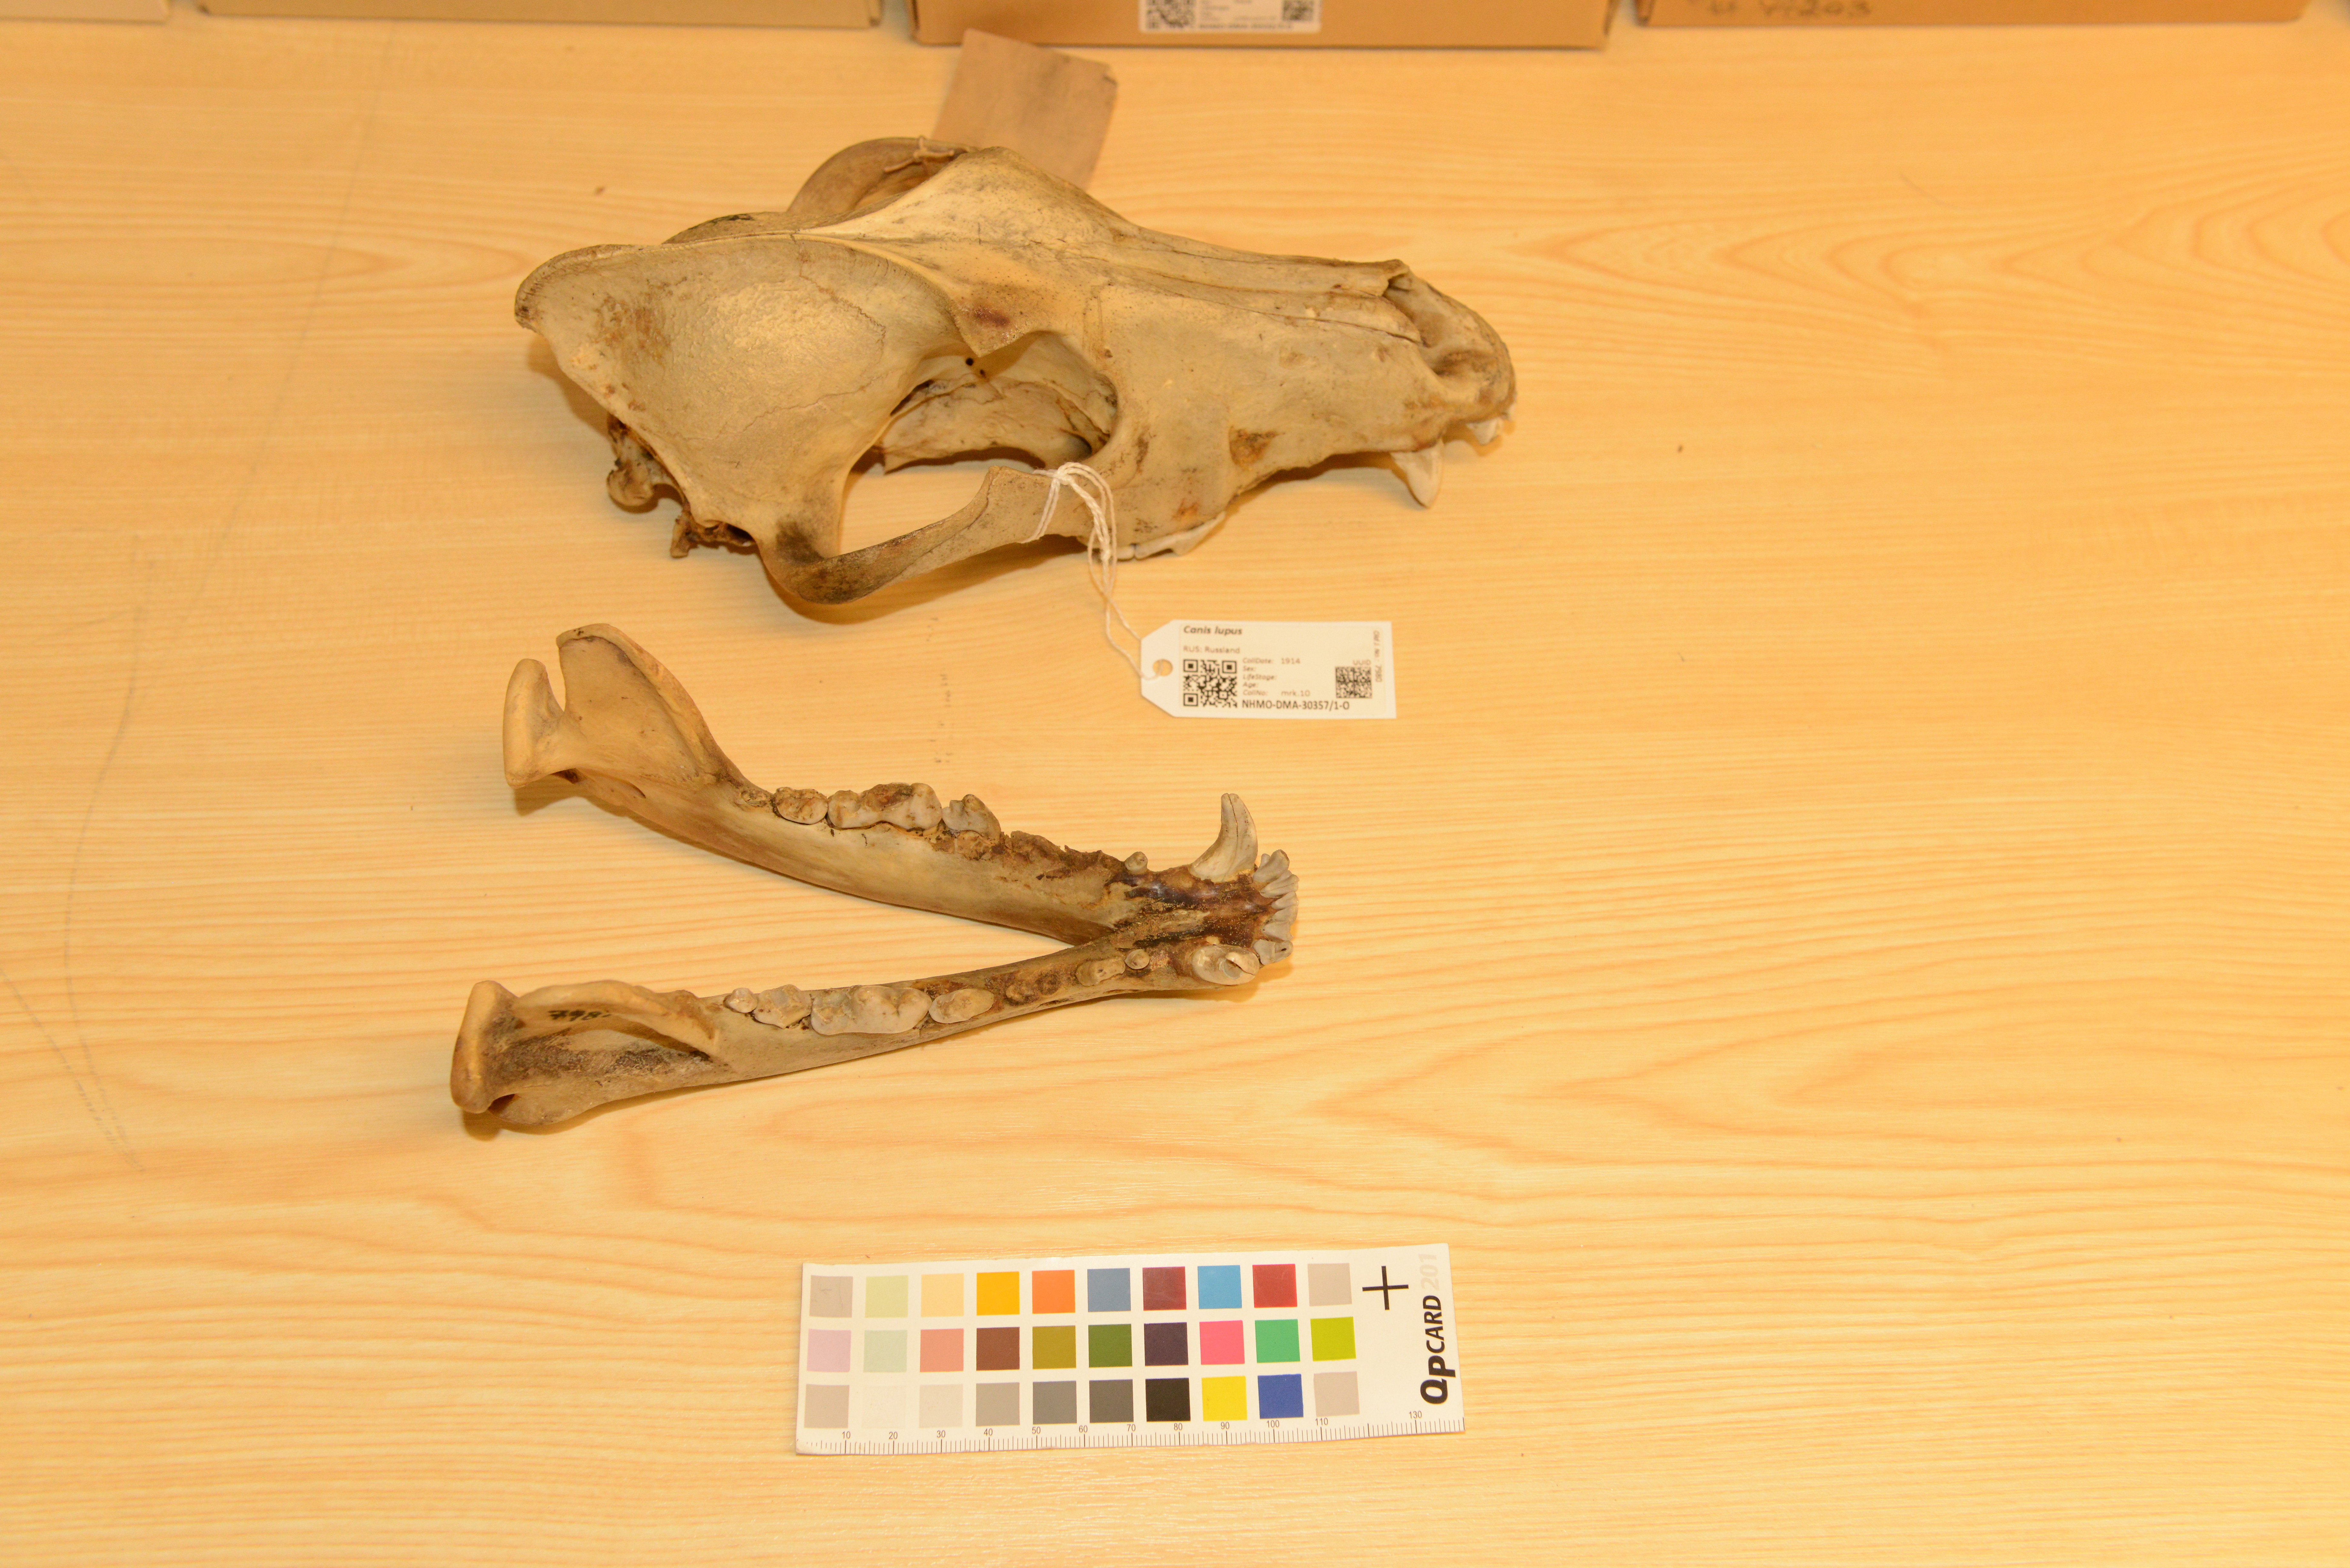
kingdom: Animalia
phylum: Chordata
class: Mammalia
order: Carnivora
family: Canidae
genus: Canis
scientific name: Canis lupus
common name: Gray wolf
